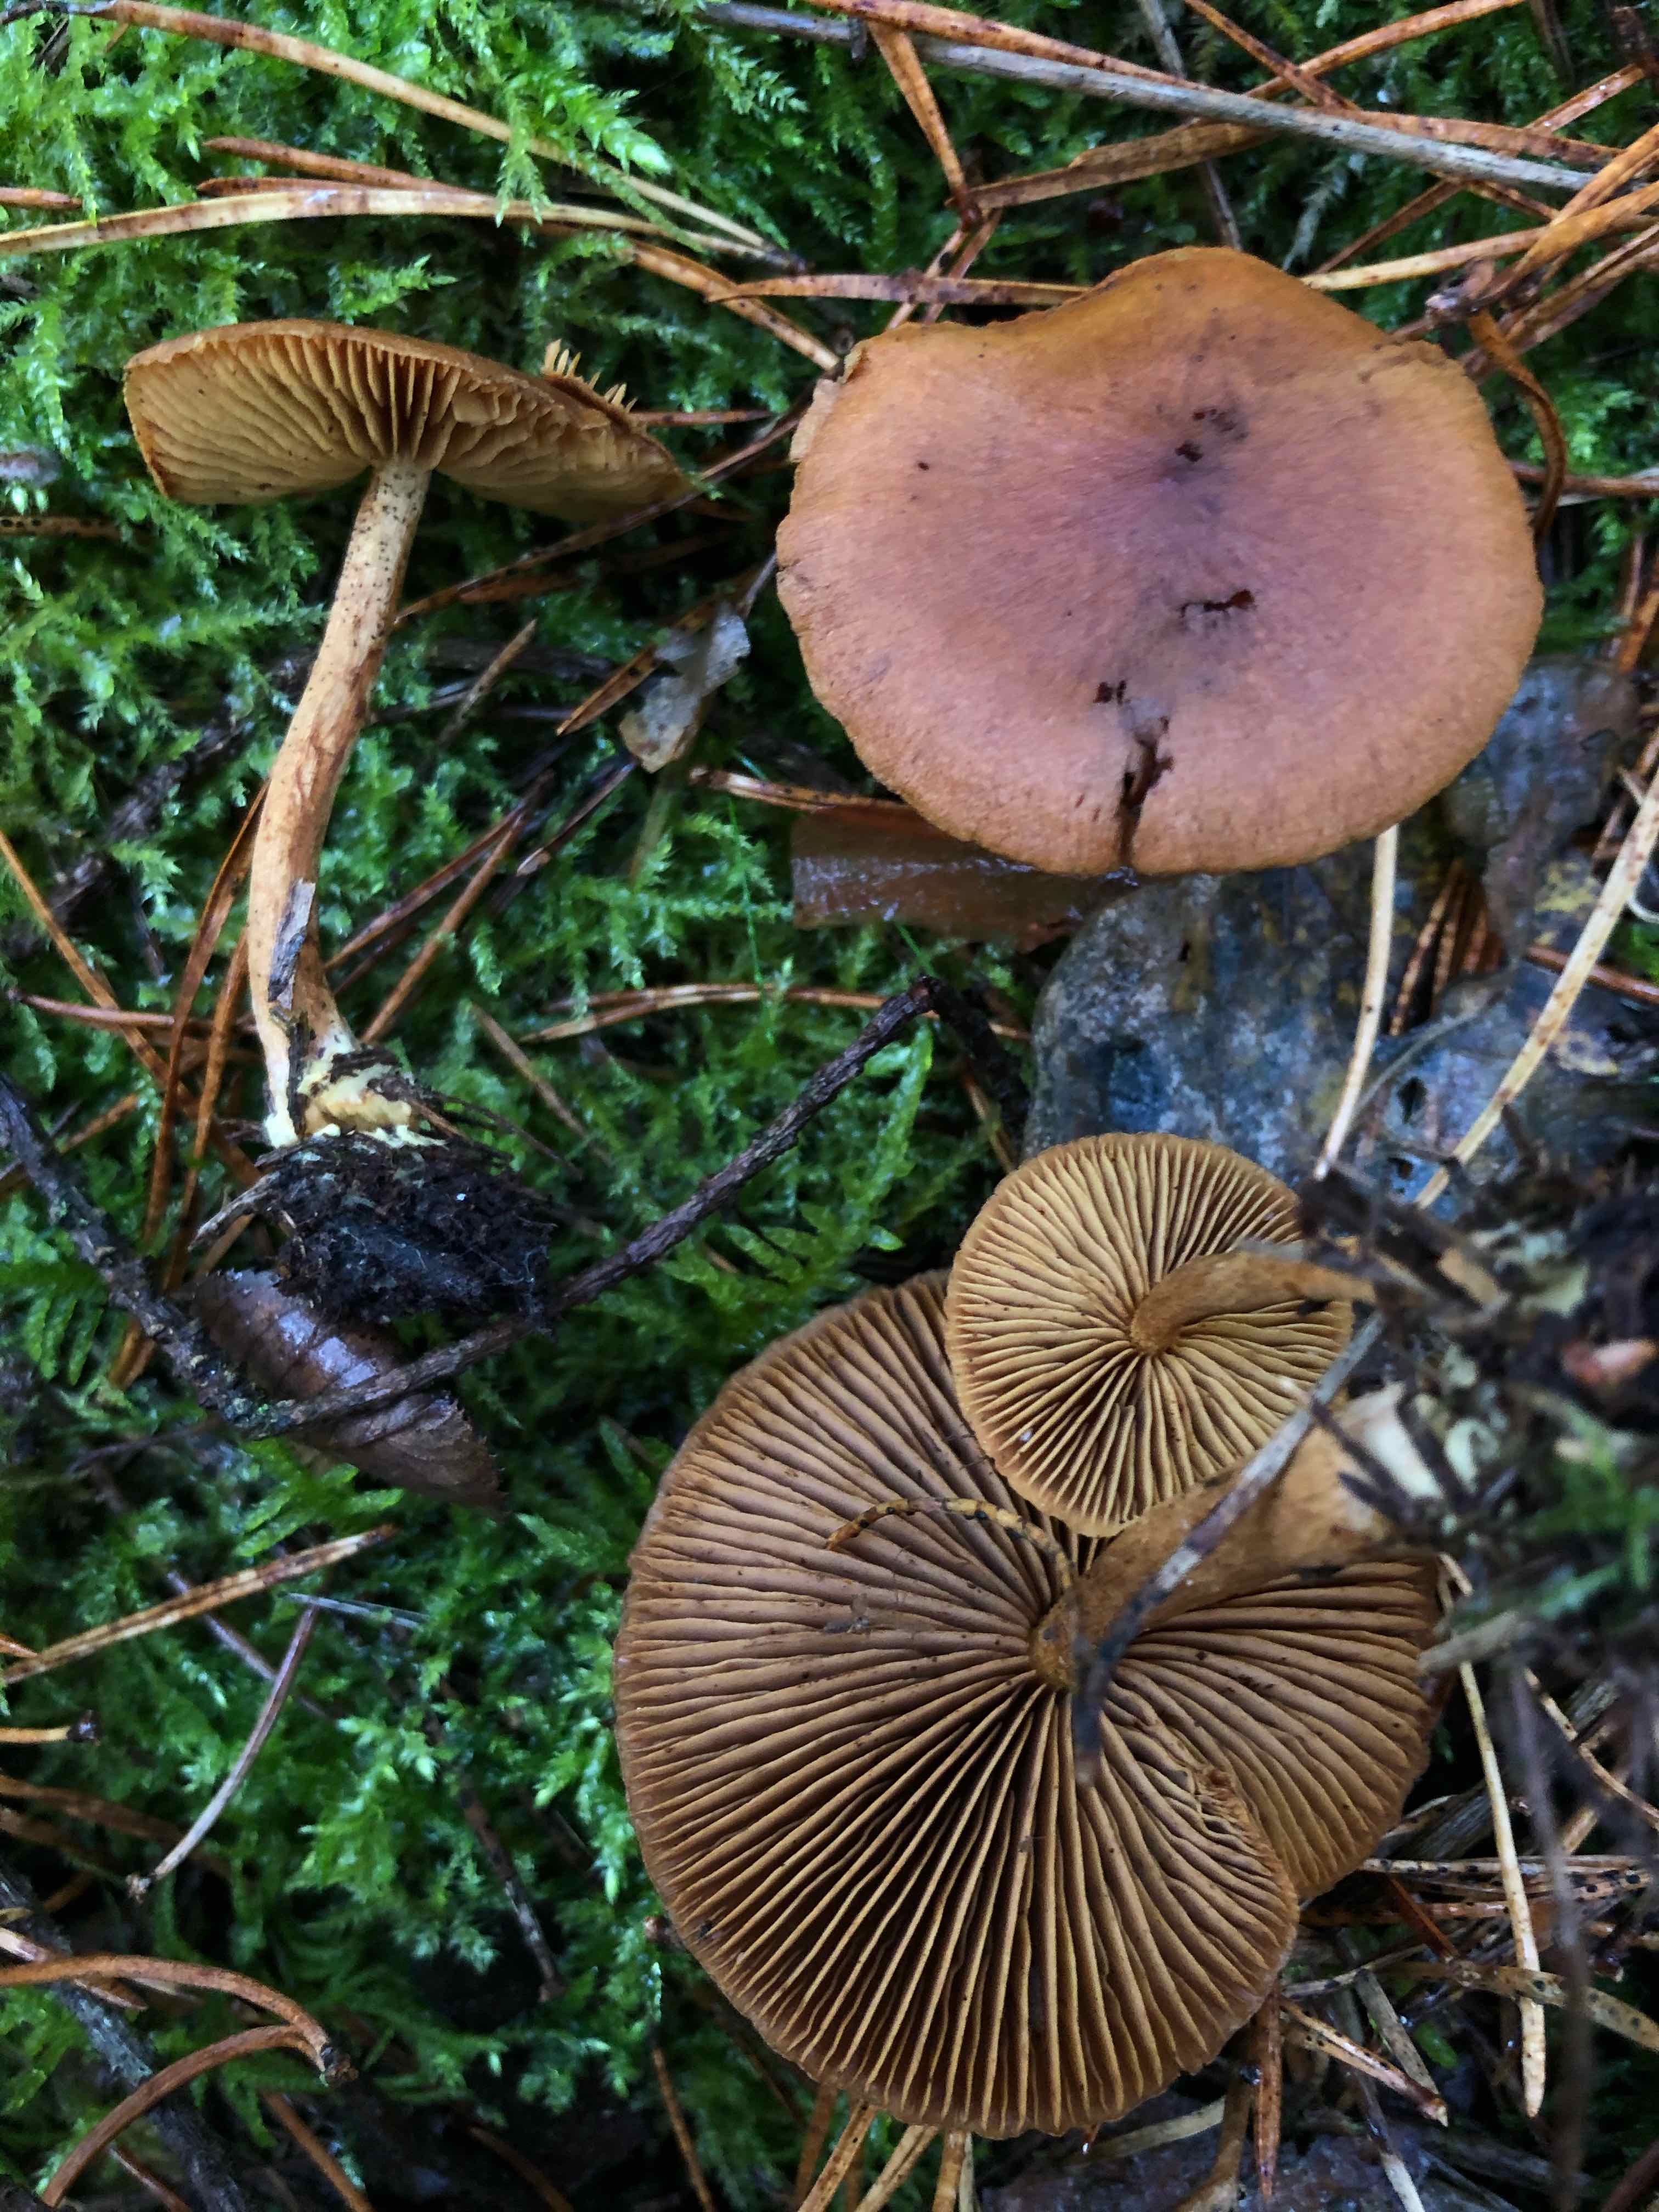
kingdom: Fungi
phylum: Basidiomycota
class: Agaricomycetes
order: Agaricales
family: Cortinariaceae
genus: Cortinarius
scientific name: Cortinarius
